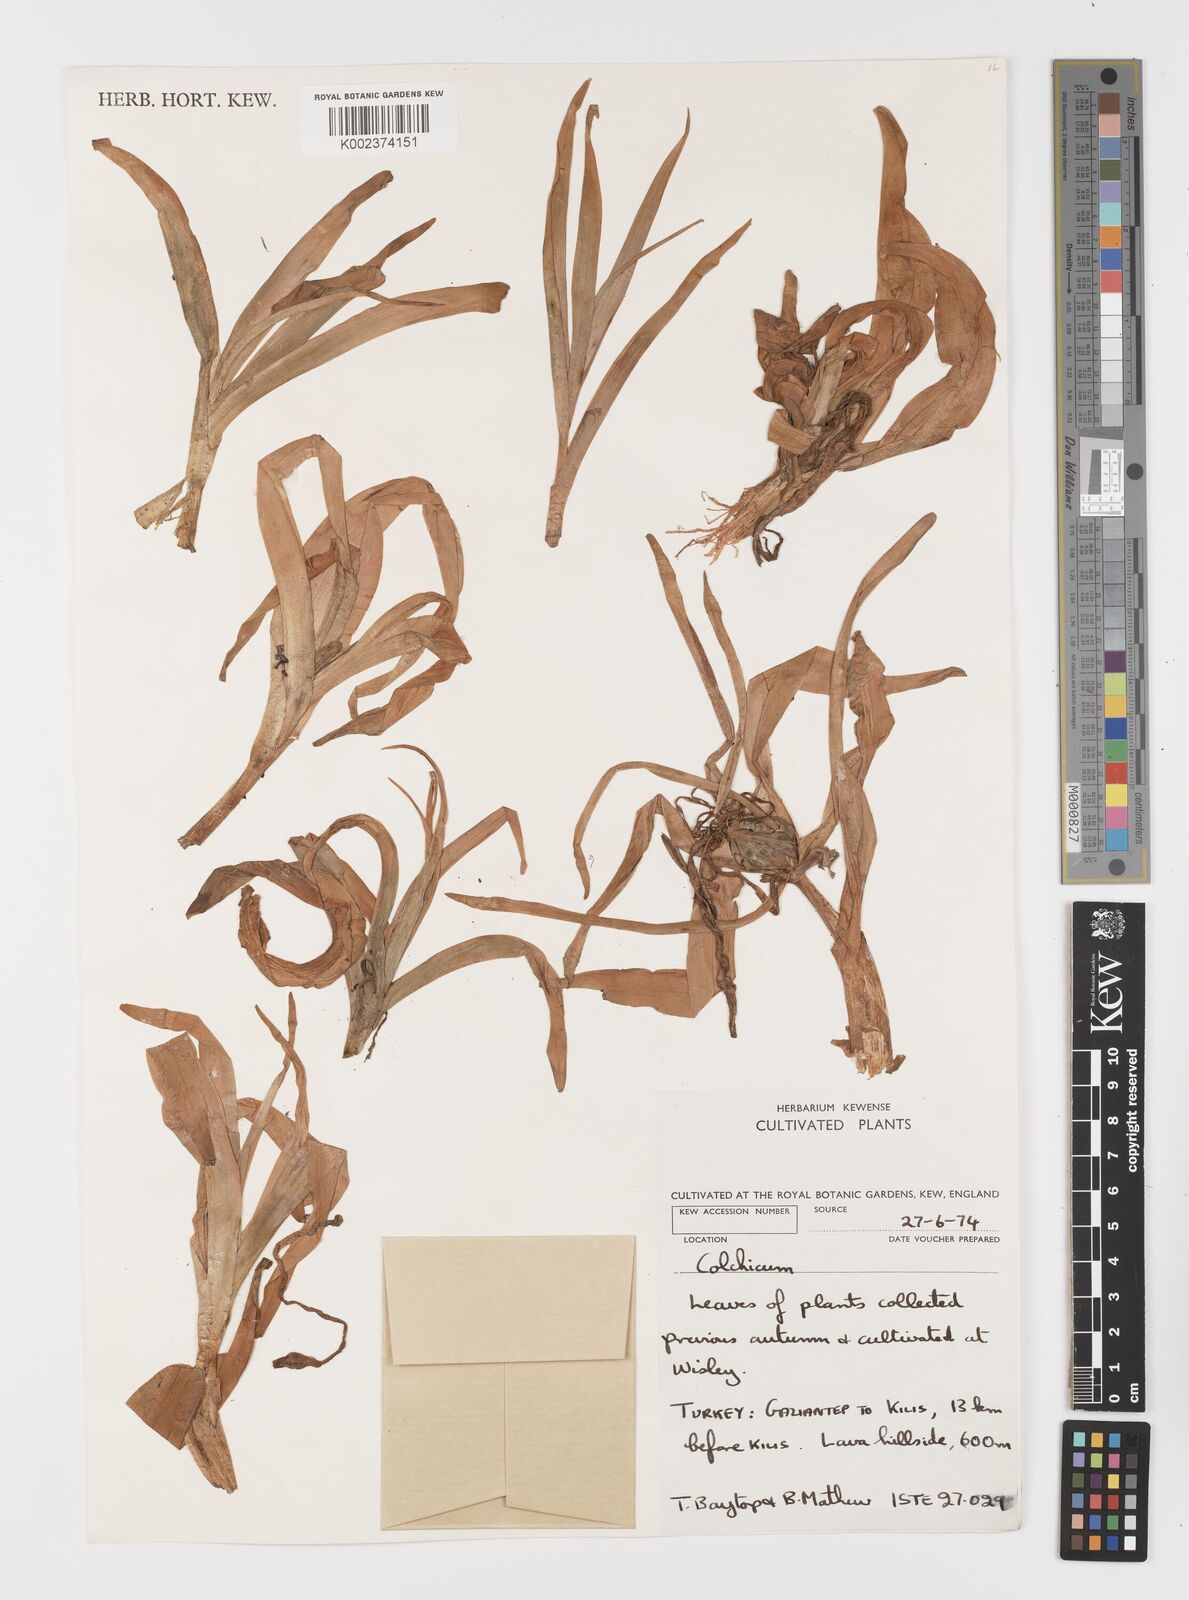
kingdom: Plantae
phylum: Tracheophyta
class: Liliopsida
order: Liliales
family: Colchicaceae
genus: Colchicum
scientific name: Colchicum hierosolymitanum
